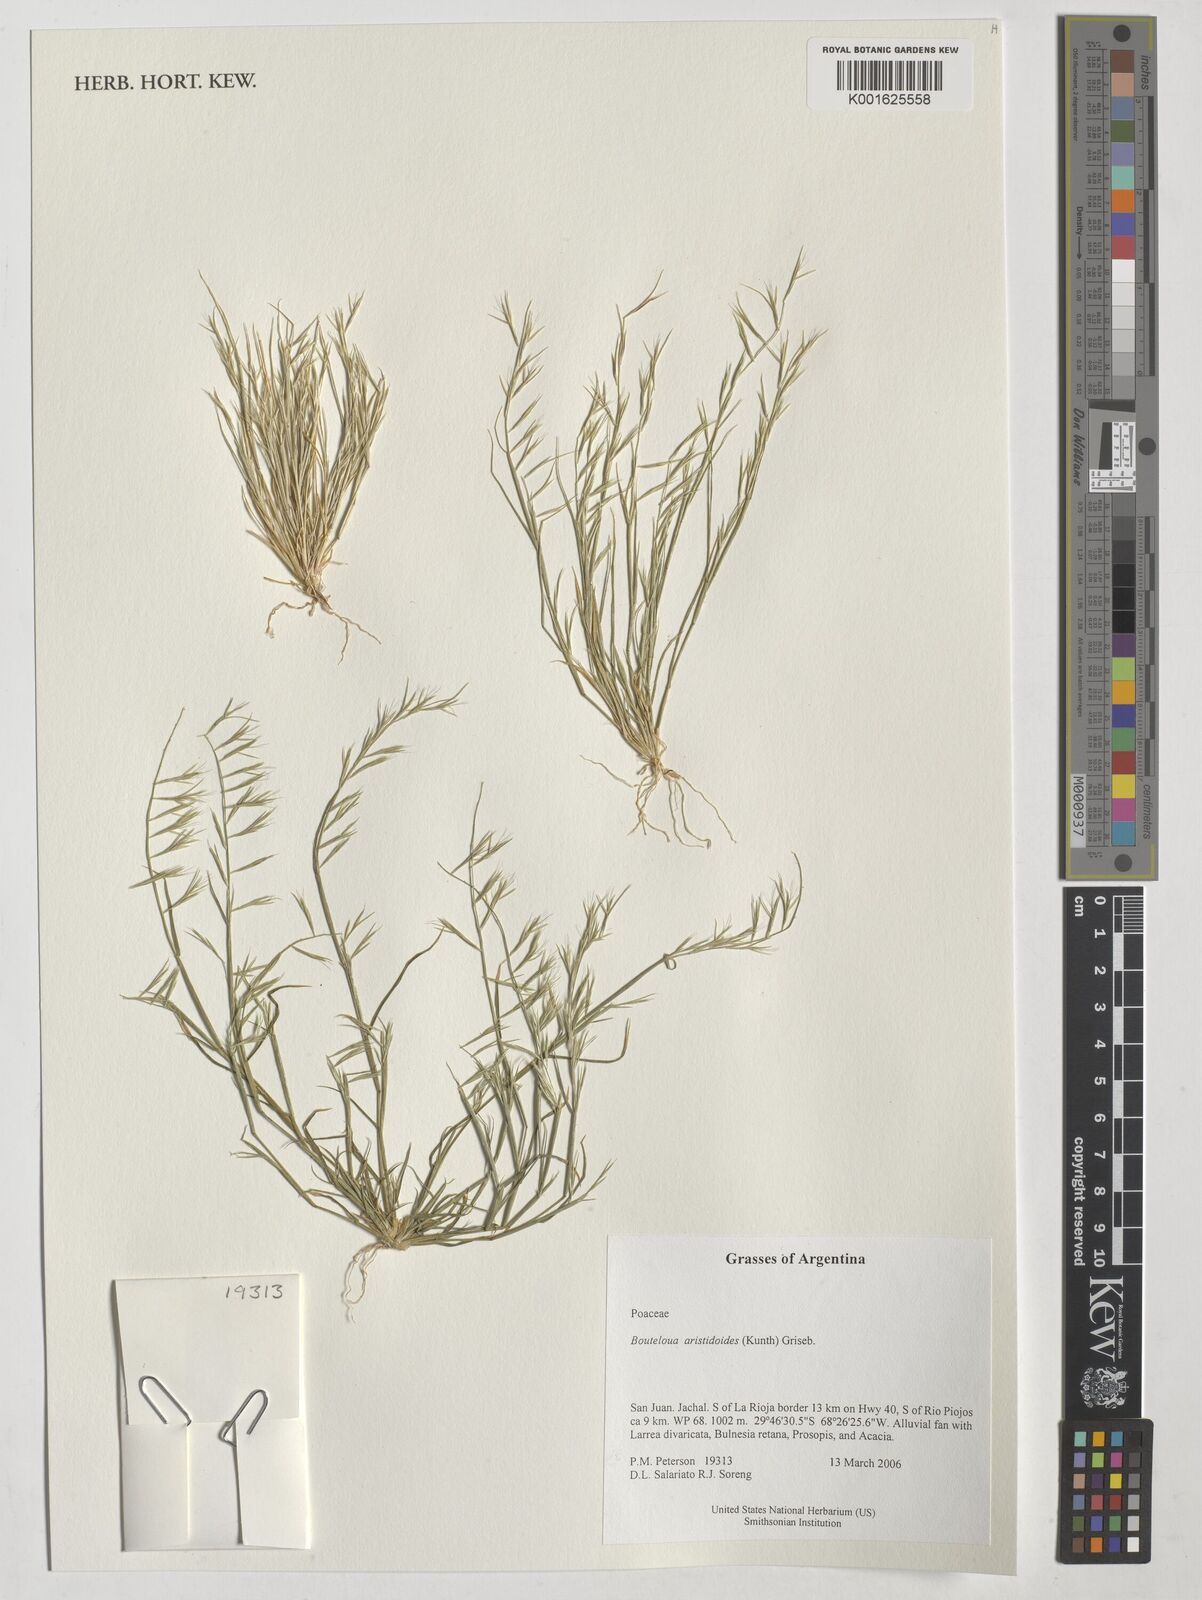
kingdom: Plantae
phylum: Tracheophyta
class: Liliopsida
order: Poales
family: Poaceae
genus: Bouteloua
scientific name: Bouteloua aristidoides
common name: Needle grama
